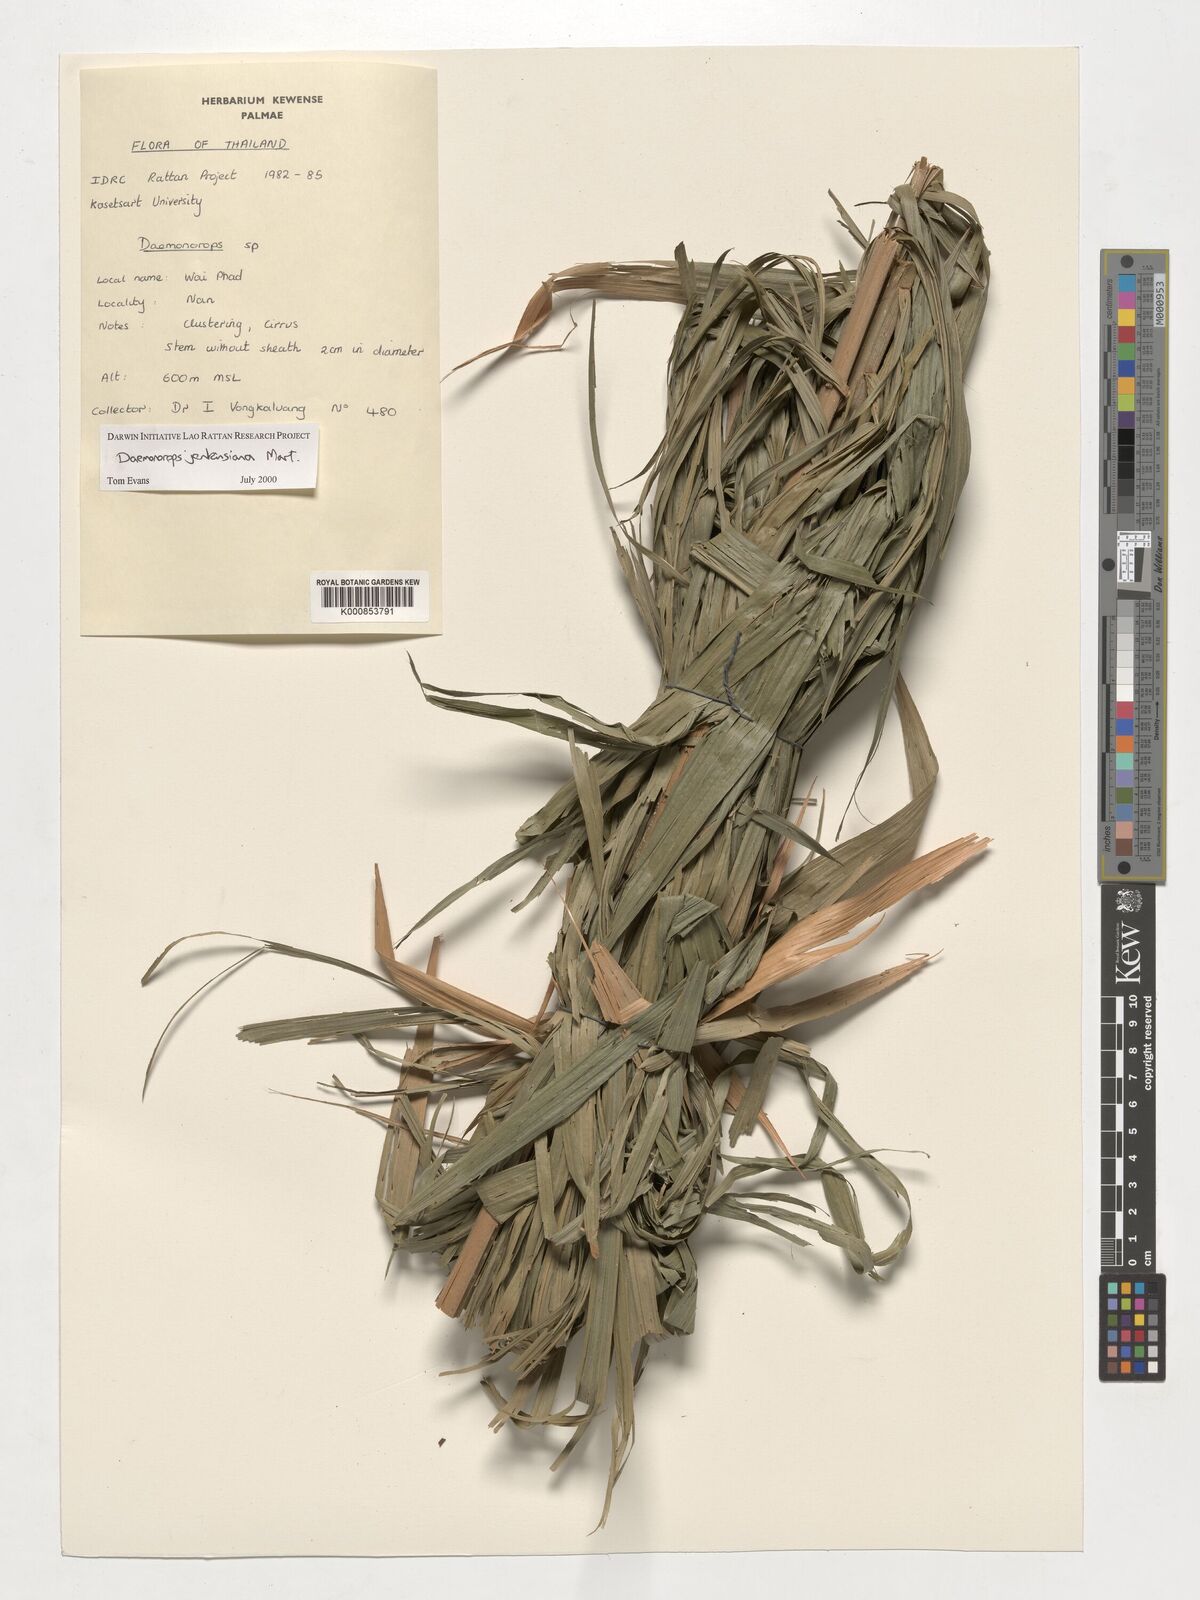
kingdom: Plantae
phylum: Tracheophyta
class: Liliopsida
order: Arecales
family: Arecaceae
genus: Calamus
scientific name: Calamus melanochaetes
